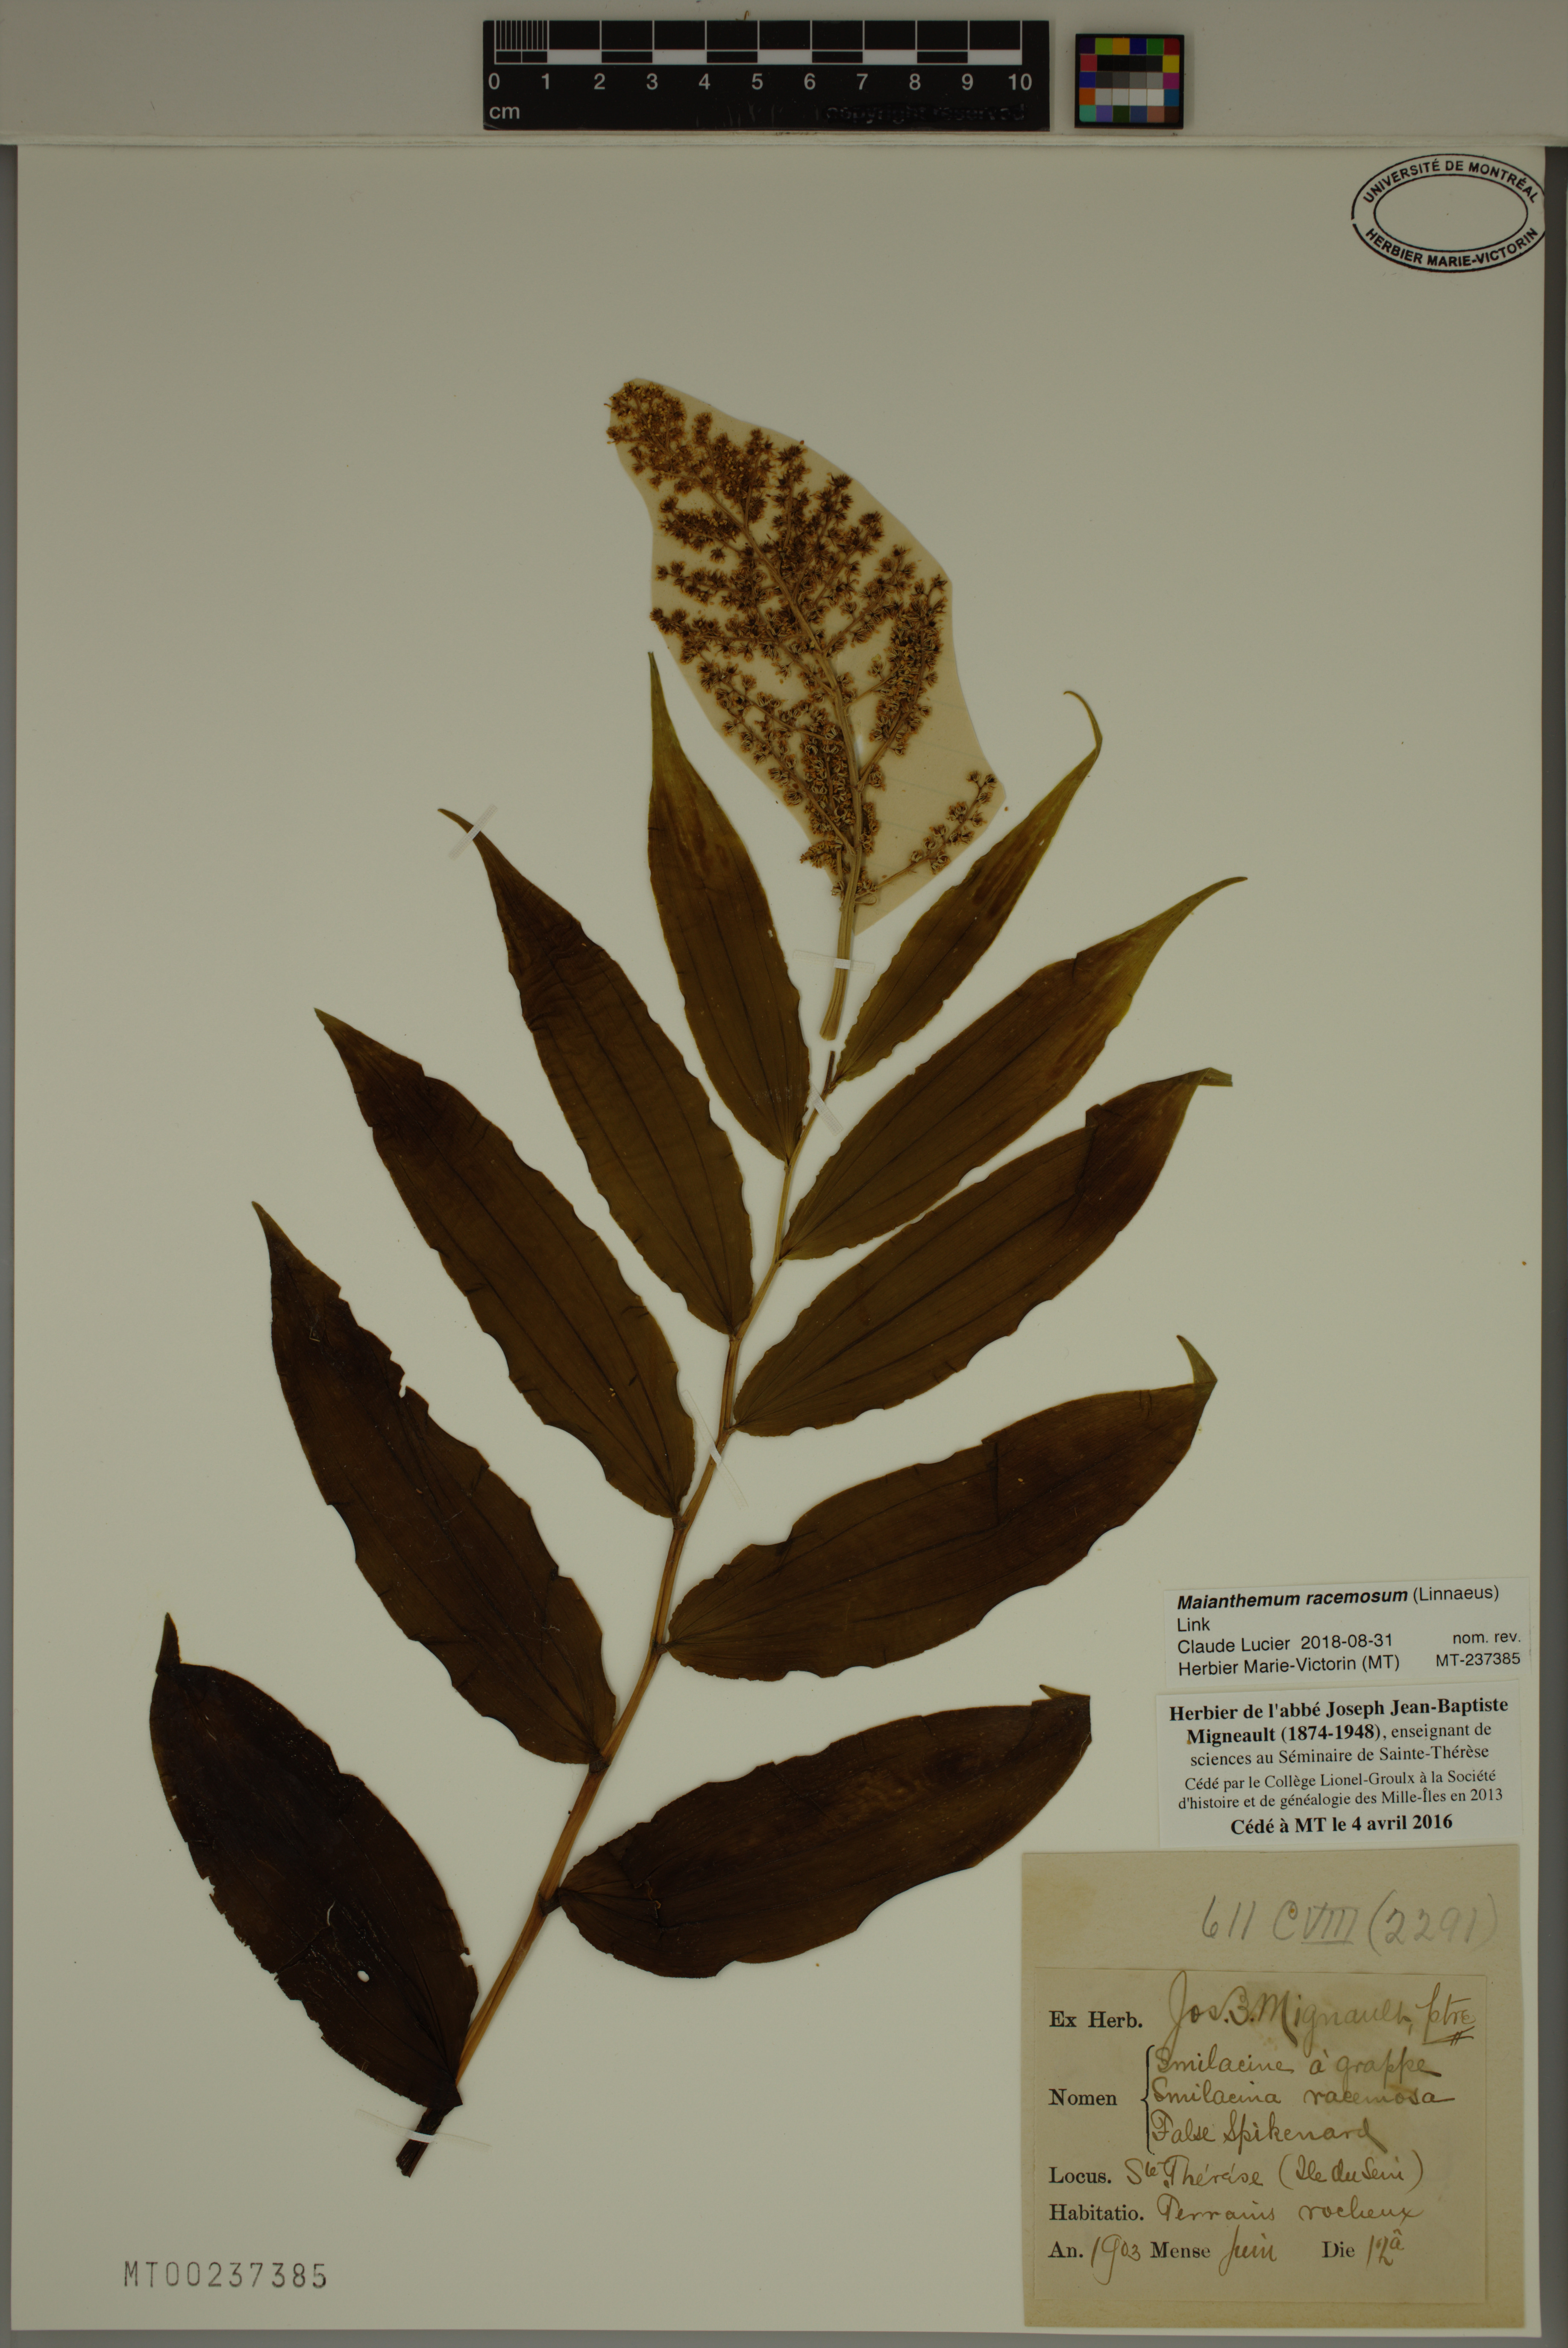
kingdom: Plantae
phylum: Tracheophyta
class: Liliopsida
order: Asparagales
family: Asparagaceae
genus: Maianthemum
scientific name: Maianthemum racemosum
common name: False spikenard
